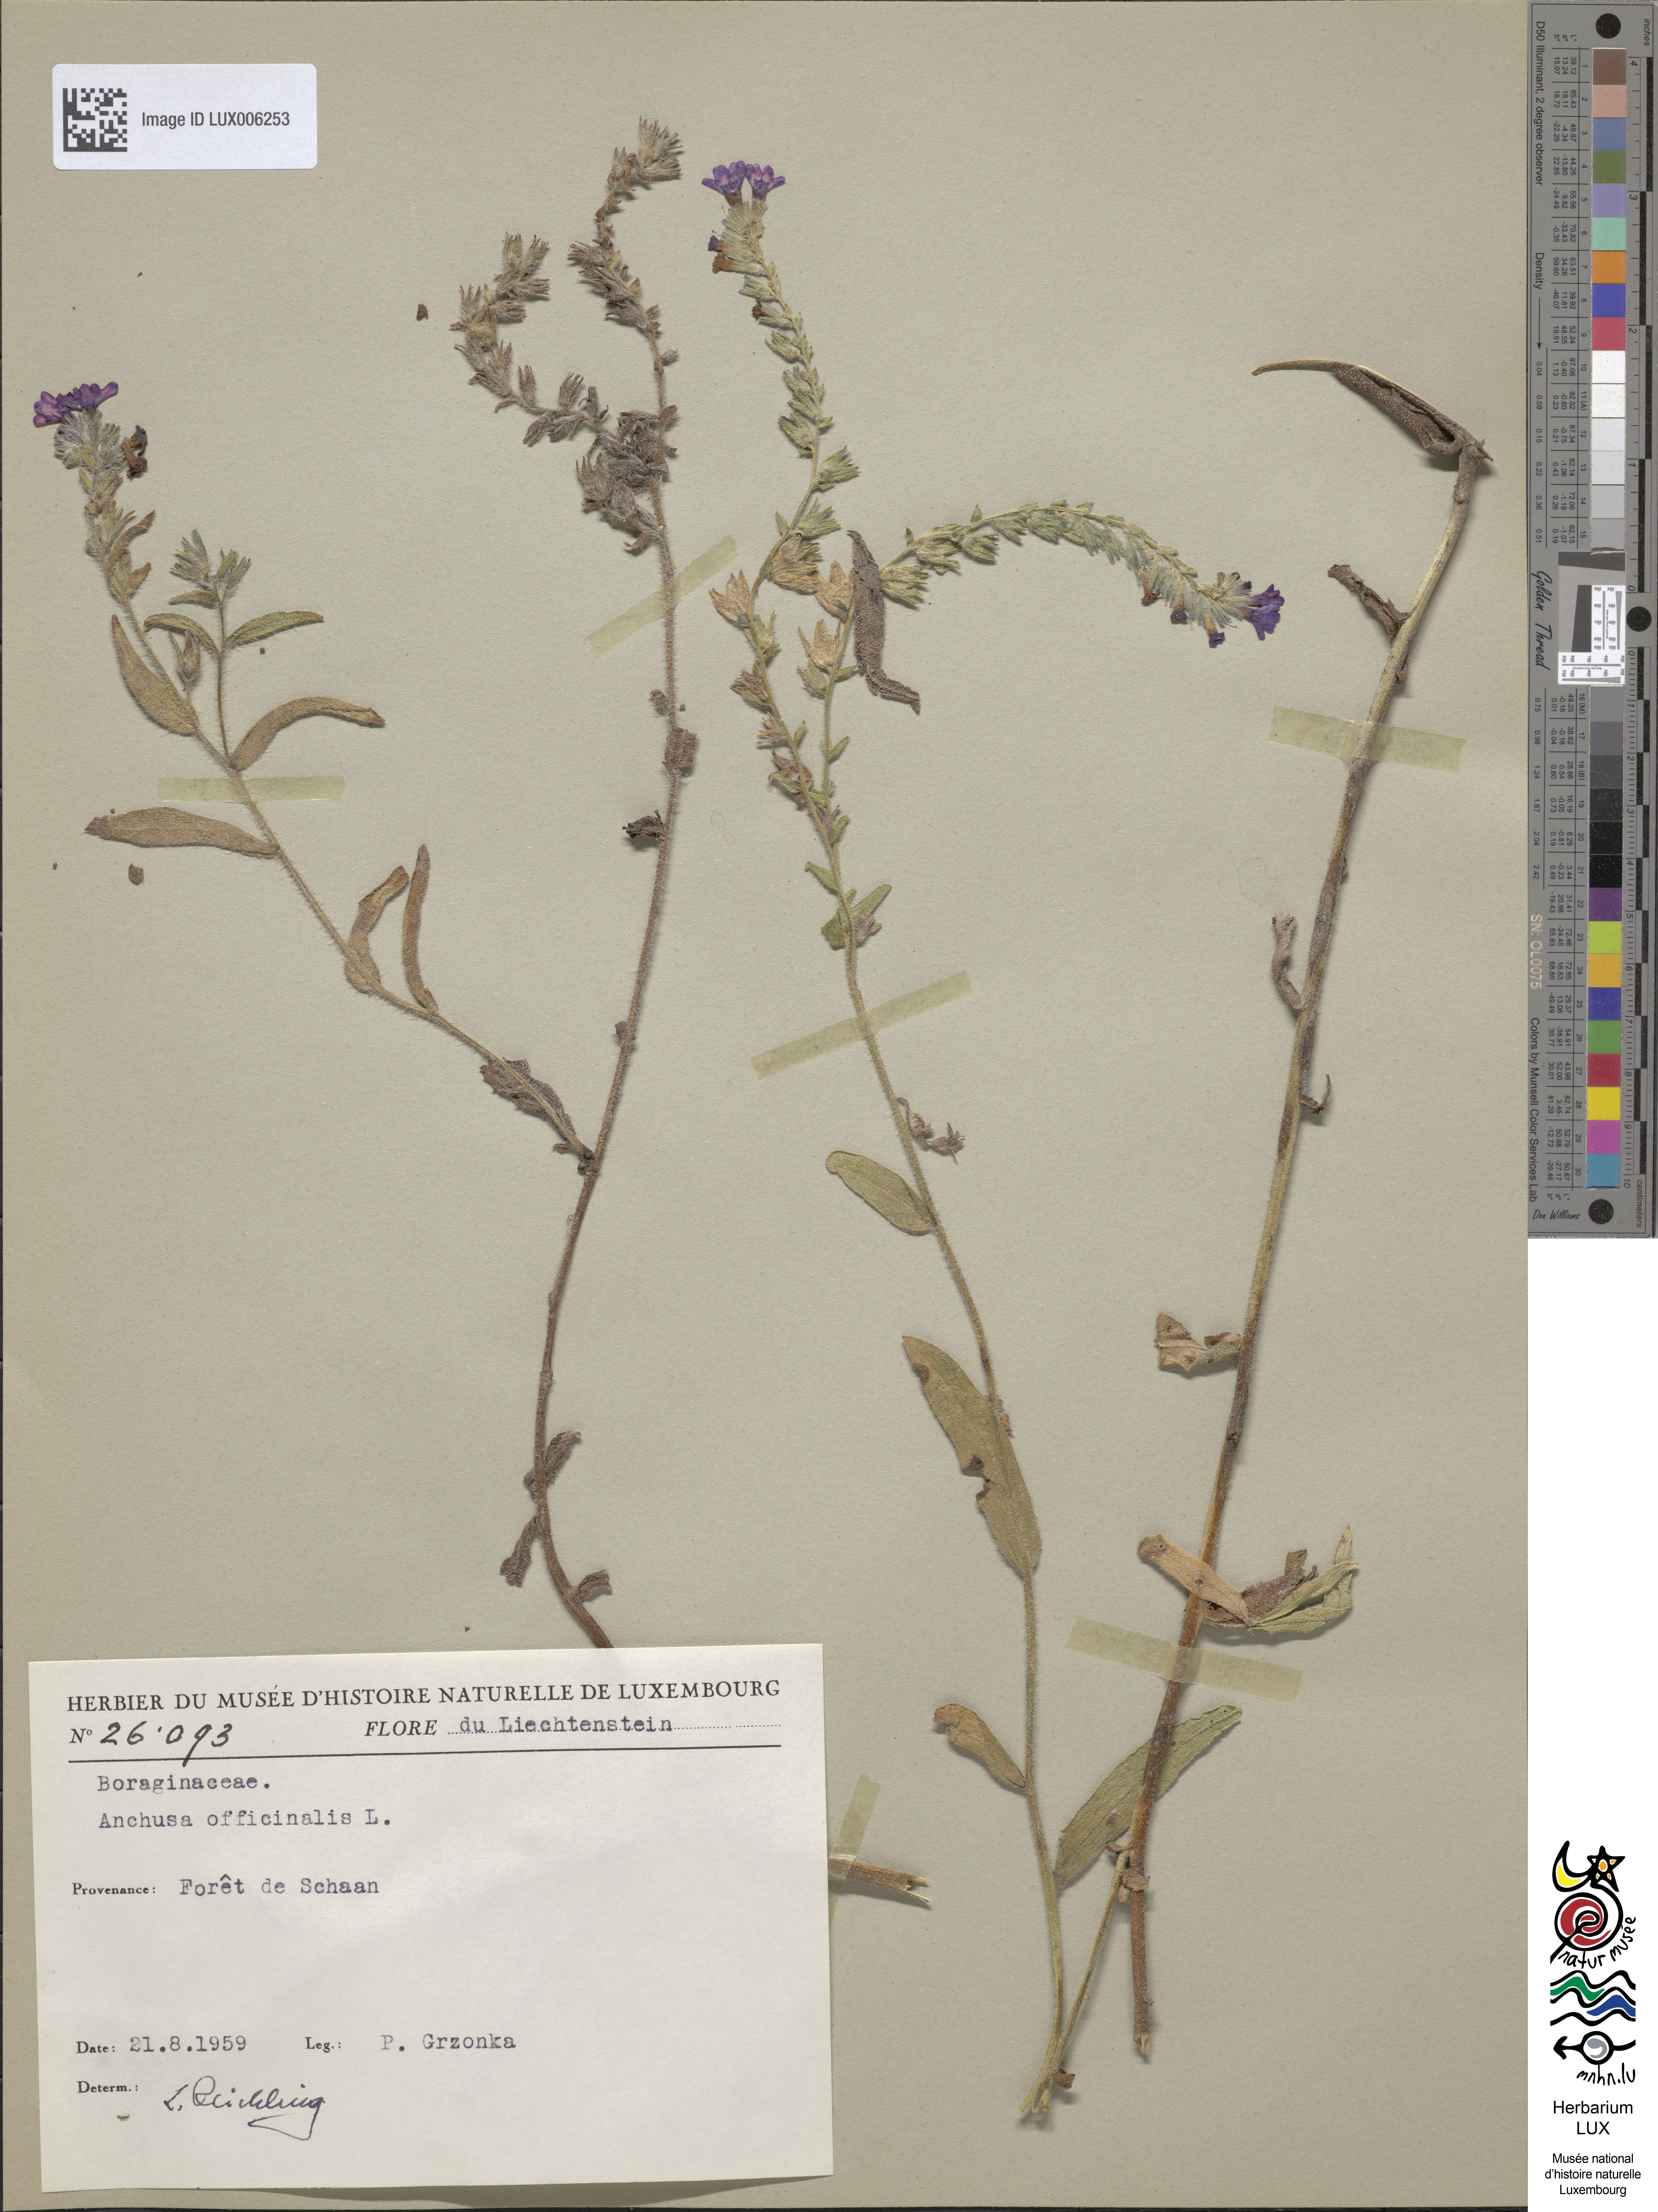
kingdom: Plantae
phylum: Tracheophyta
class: Magnoliopsida
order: Boraginales
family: Boraginaceae
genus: Anchusa
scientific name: Anchusa officinalis
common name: Alkanet
